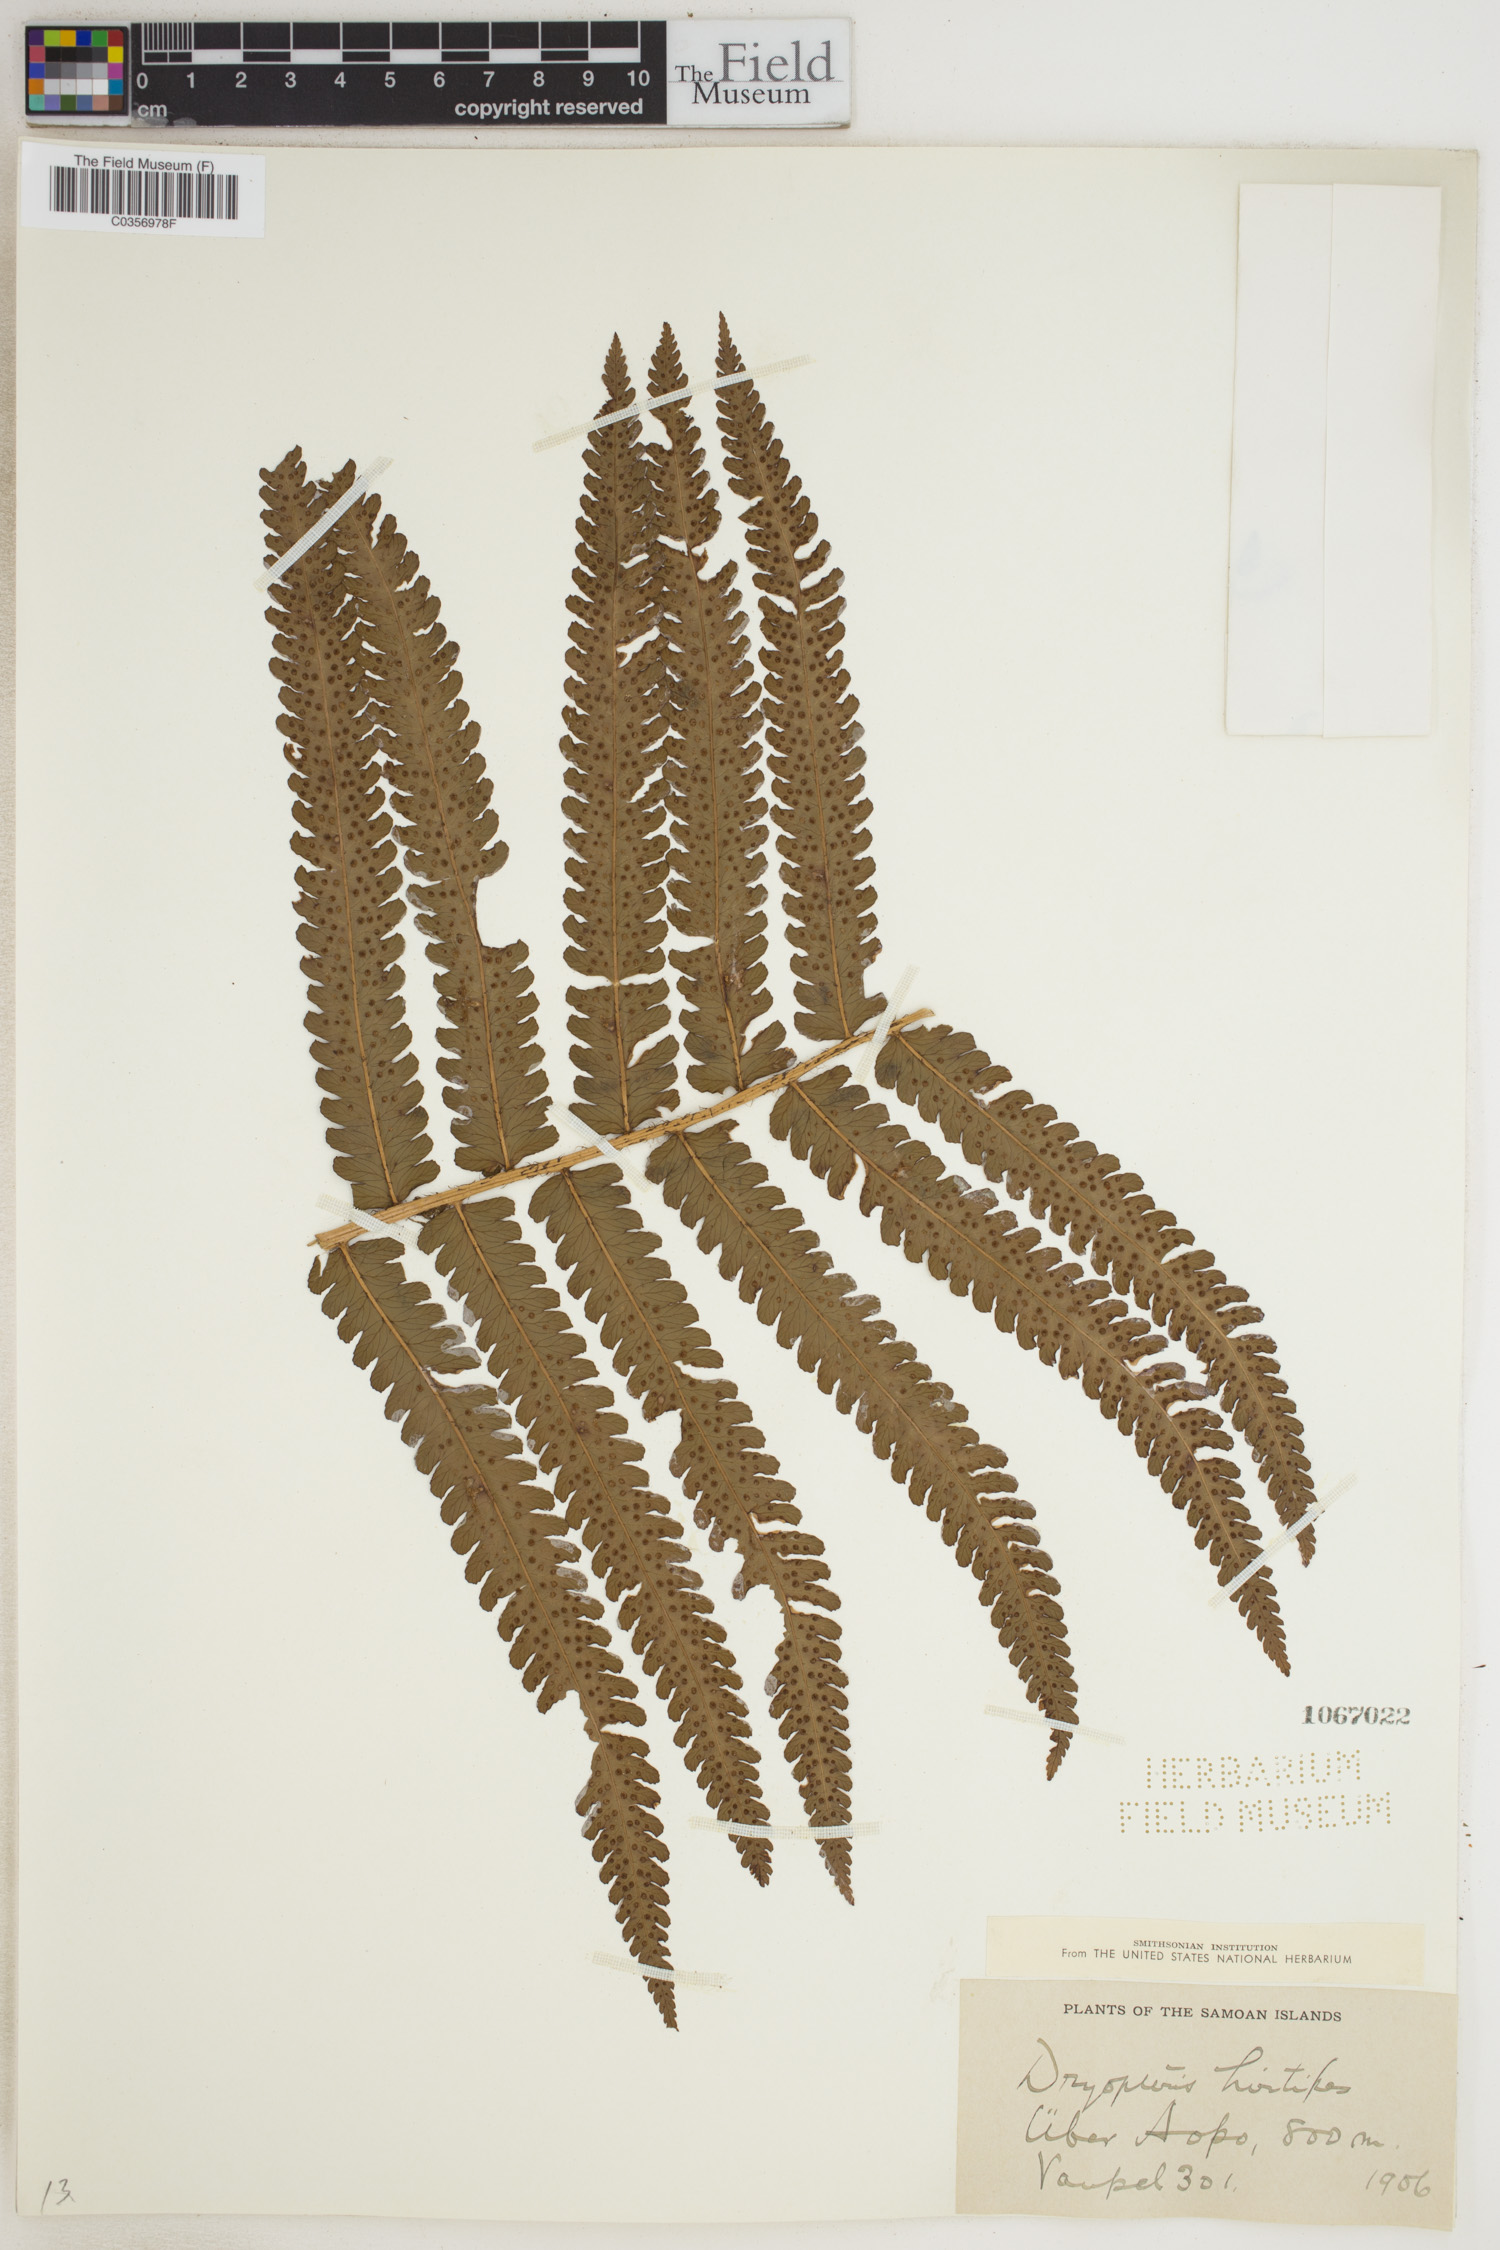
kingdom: Plantae
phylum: Tracheophyta
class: Polypodiopsida
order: Polypodiales
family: Dryopteridaceae
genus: Dryopteris
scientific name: Dryopteris hirtipes
